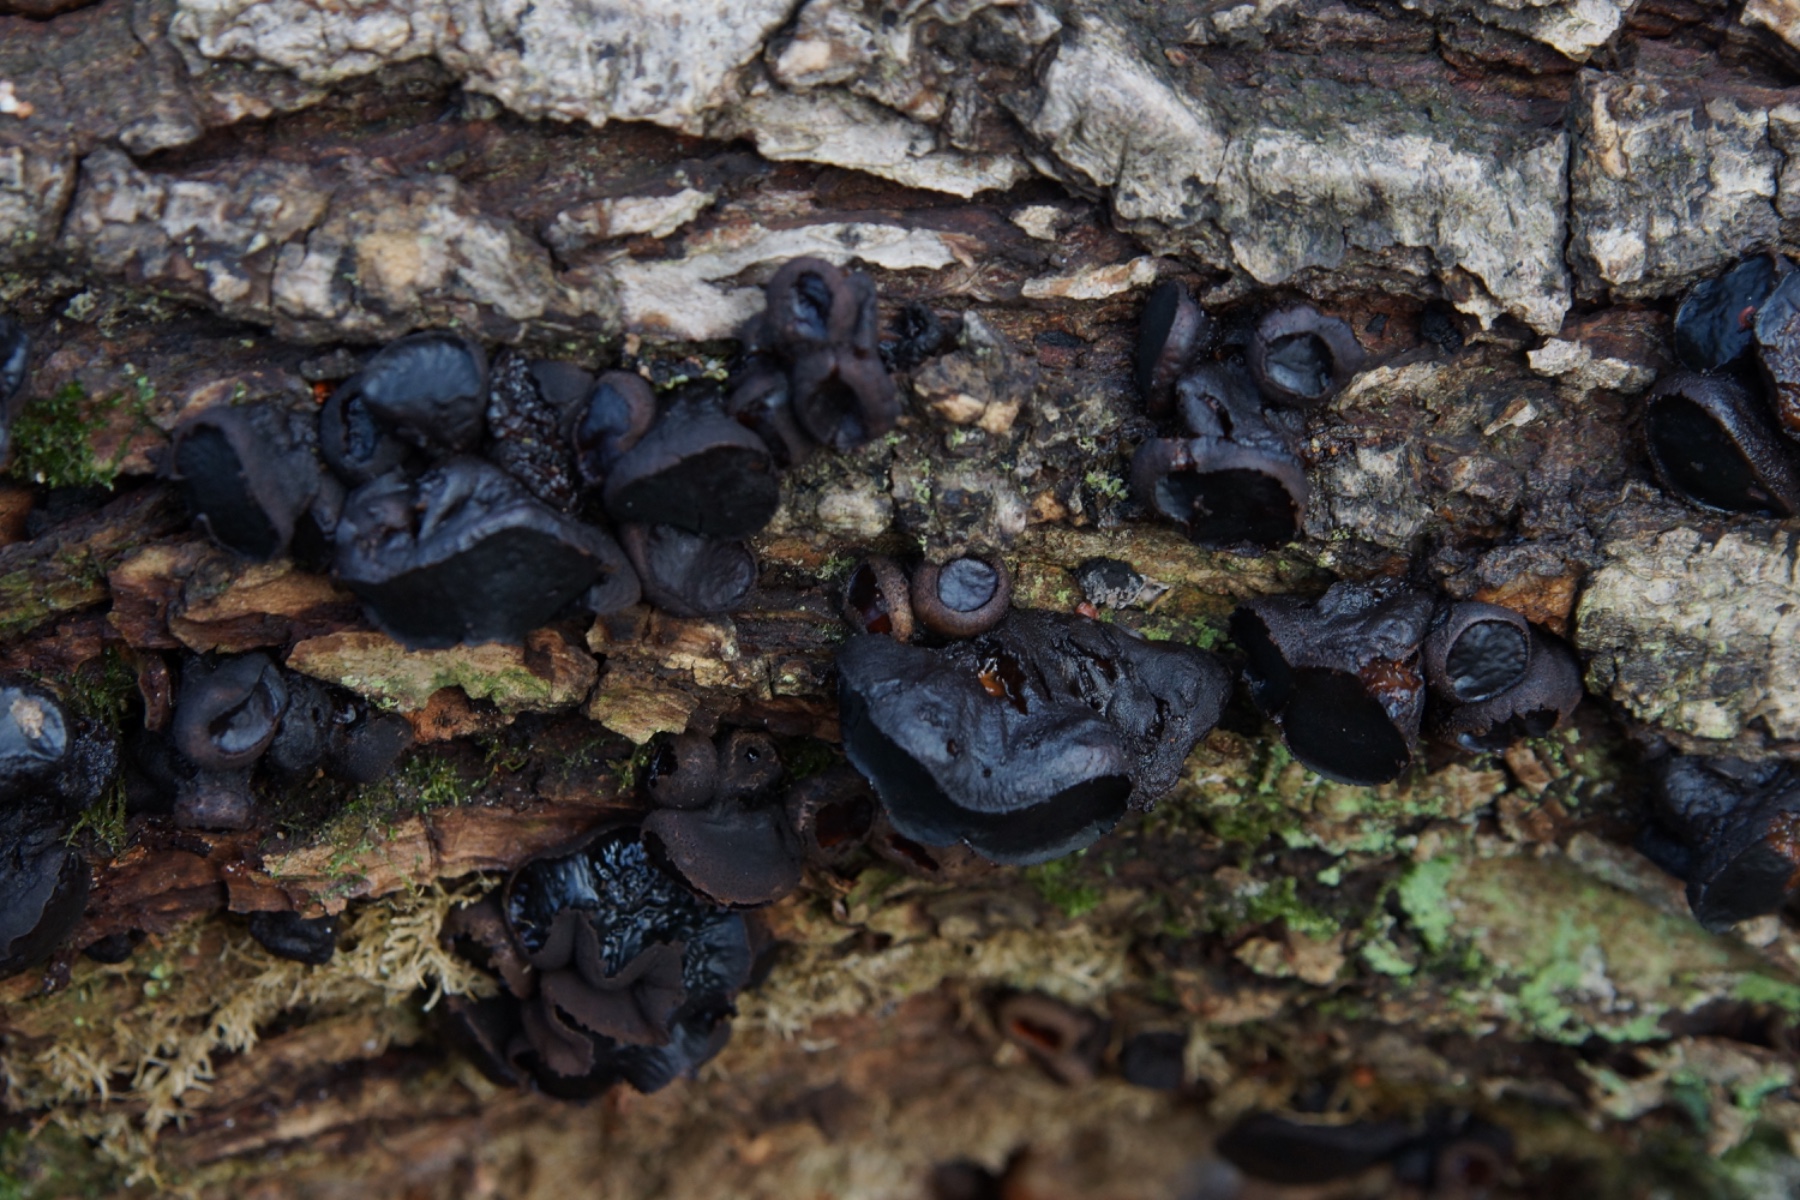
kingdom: Fungi
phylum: Ascomycota
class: Leotiomycetes
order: Phacidiales
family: Phacidiaceae
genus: Bulgaria
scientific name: Bulgaria inquinans
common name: afsmittende topsvamp
